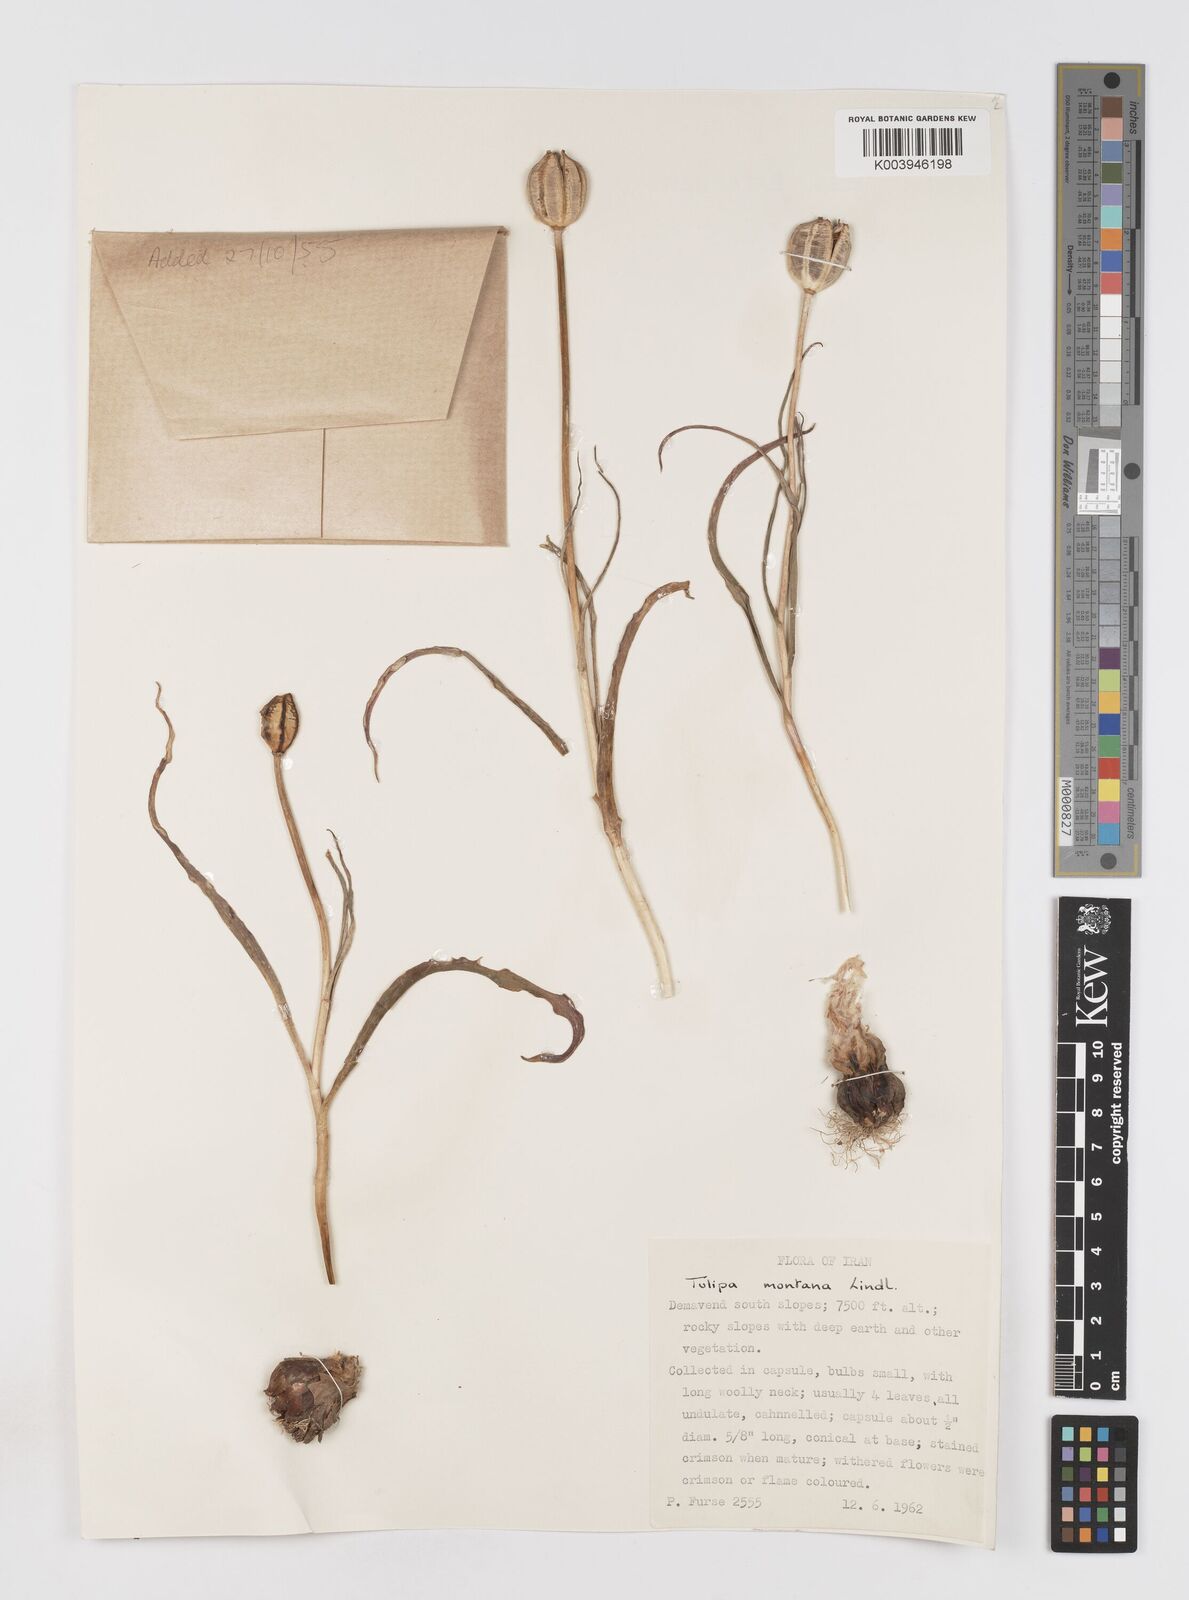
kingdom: Plantae
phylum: Tracheophyta
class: Liliopsida
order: Liliales
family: Liliaceae
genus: Tulipa
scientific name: Tulipa montana
